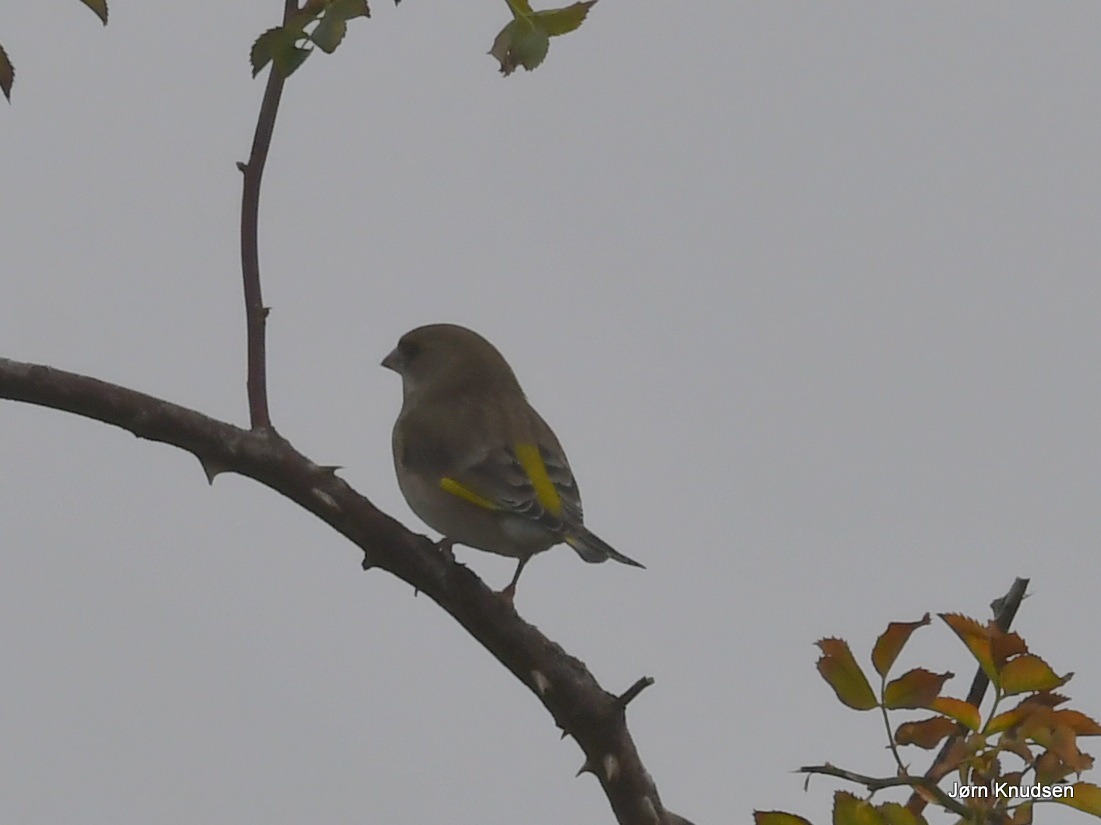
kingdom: Plantae
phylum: Tracheophyta
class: Liliopsida
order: Poales
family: Poaceae
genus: Chloris
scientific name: Chloris chloris
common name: Grønirisk
